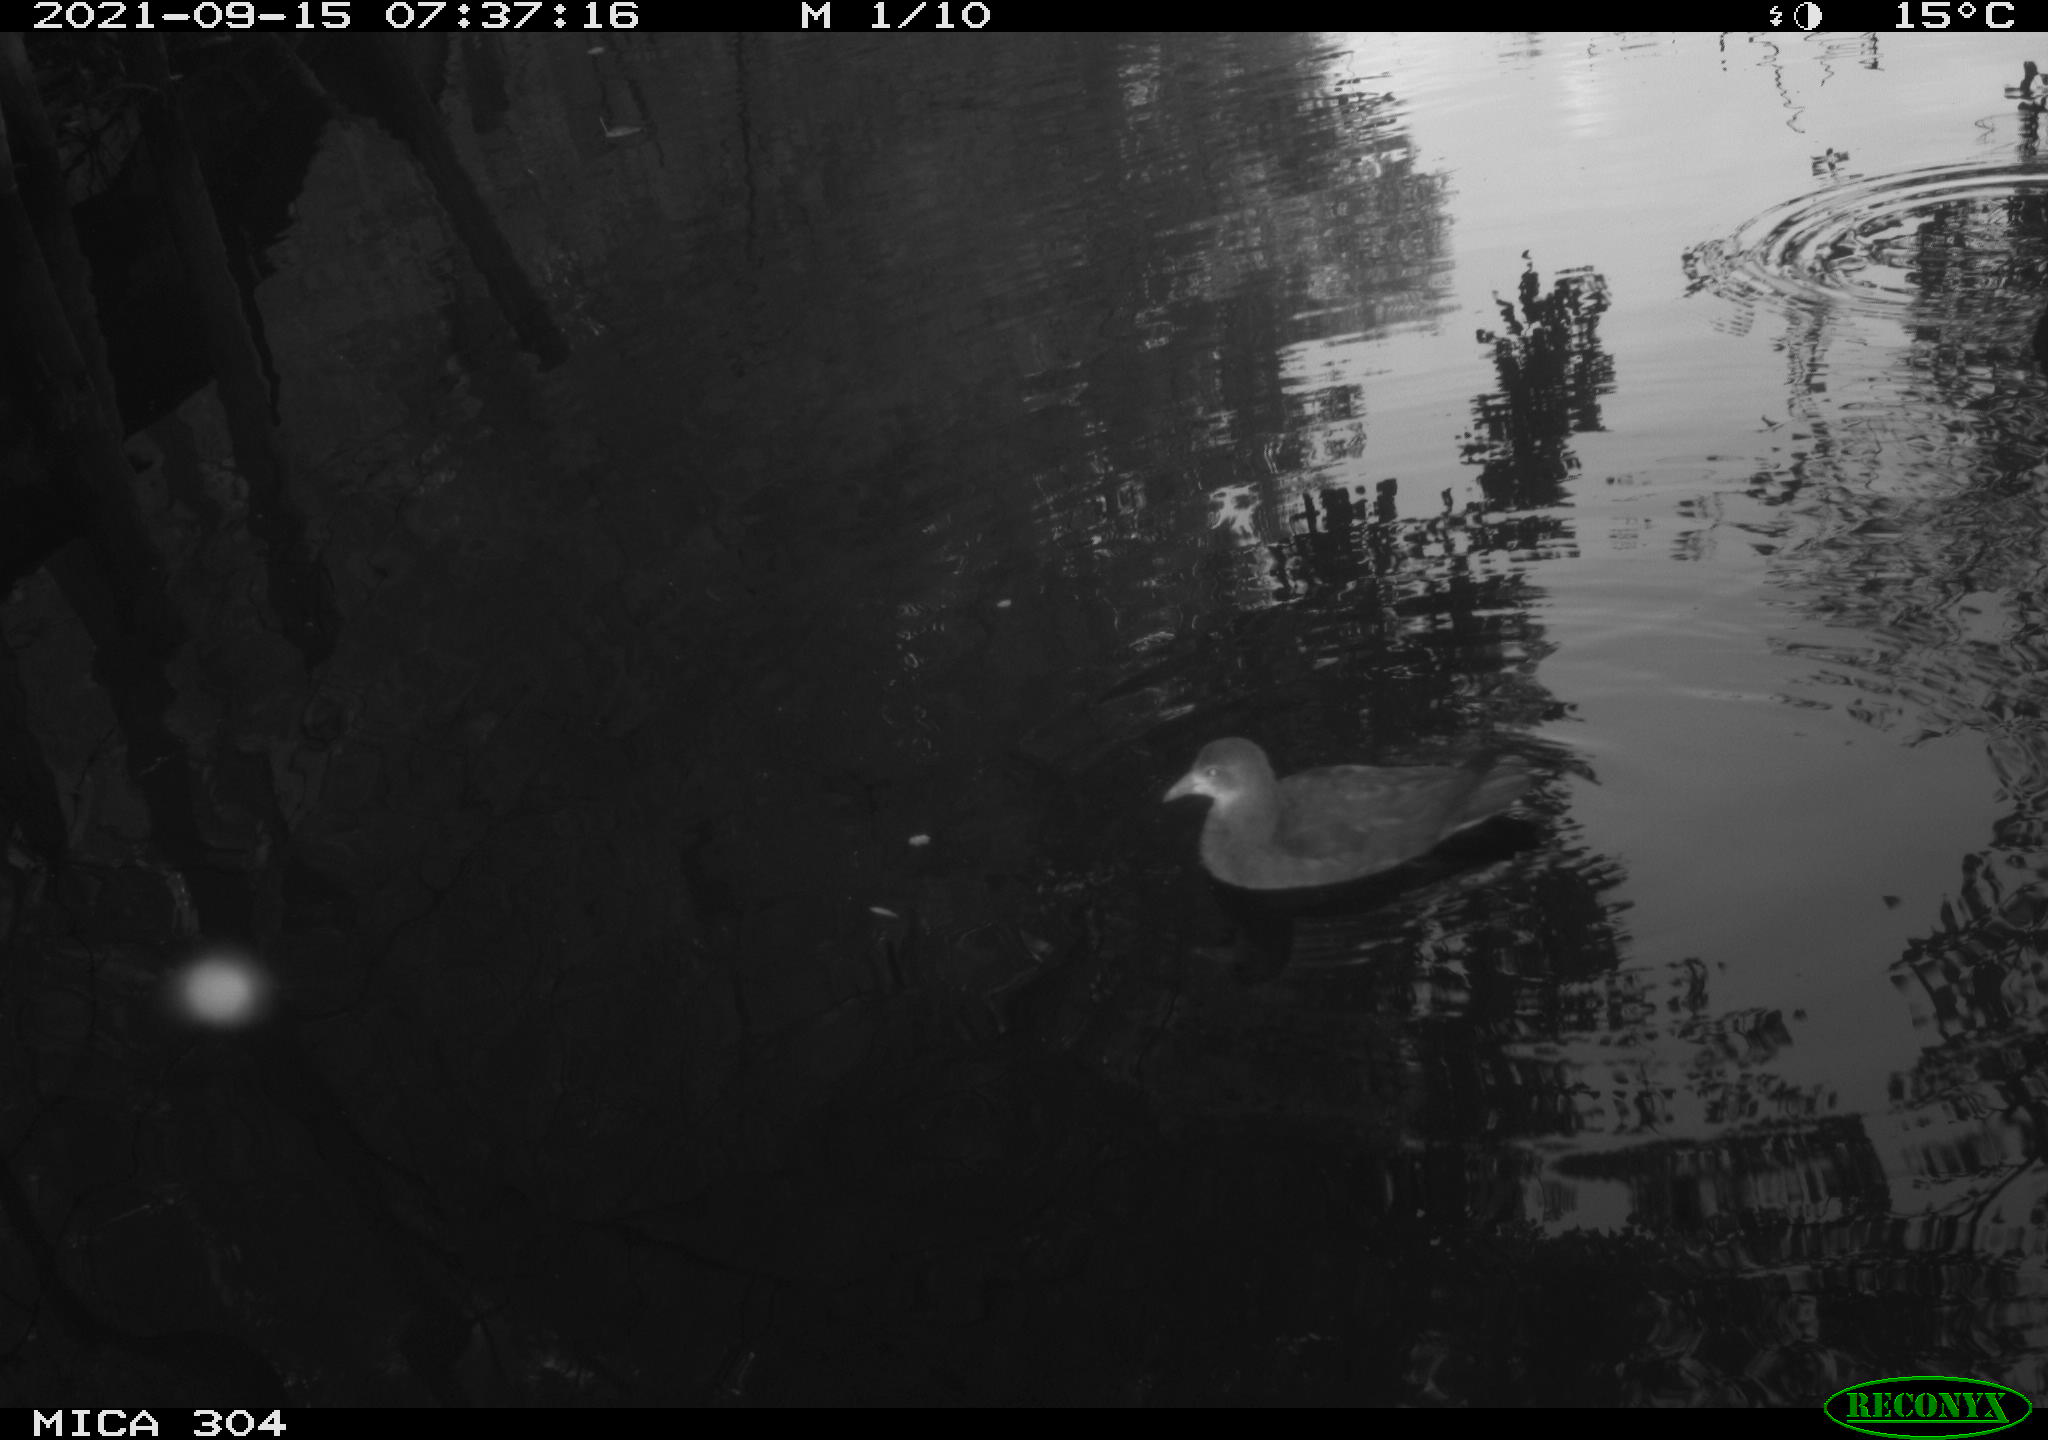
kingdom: Animalia
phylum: Chordata
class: Aves
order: Gruiformes
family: Rallidae
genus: Gallinula
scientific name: Gallinula chloropus
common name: Common moorhen
